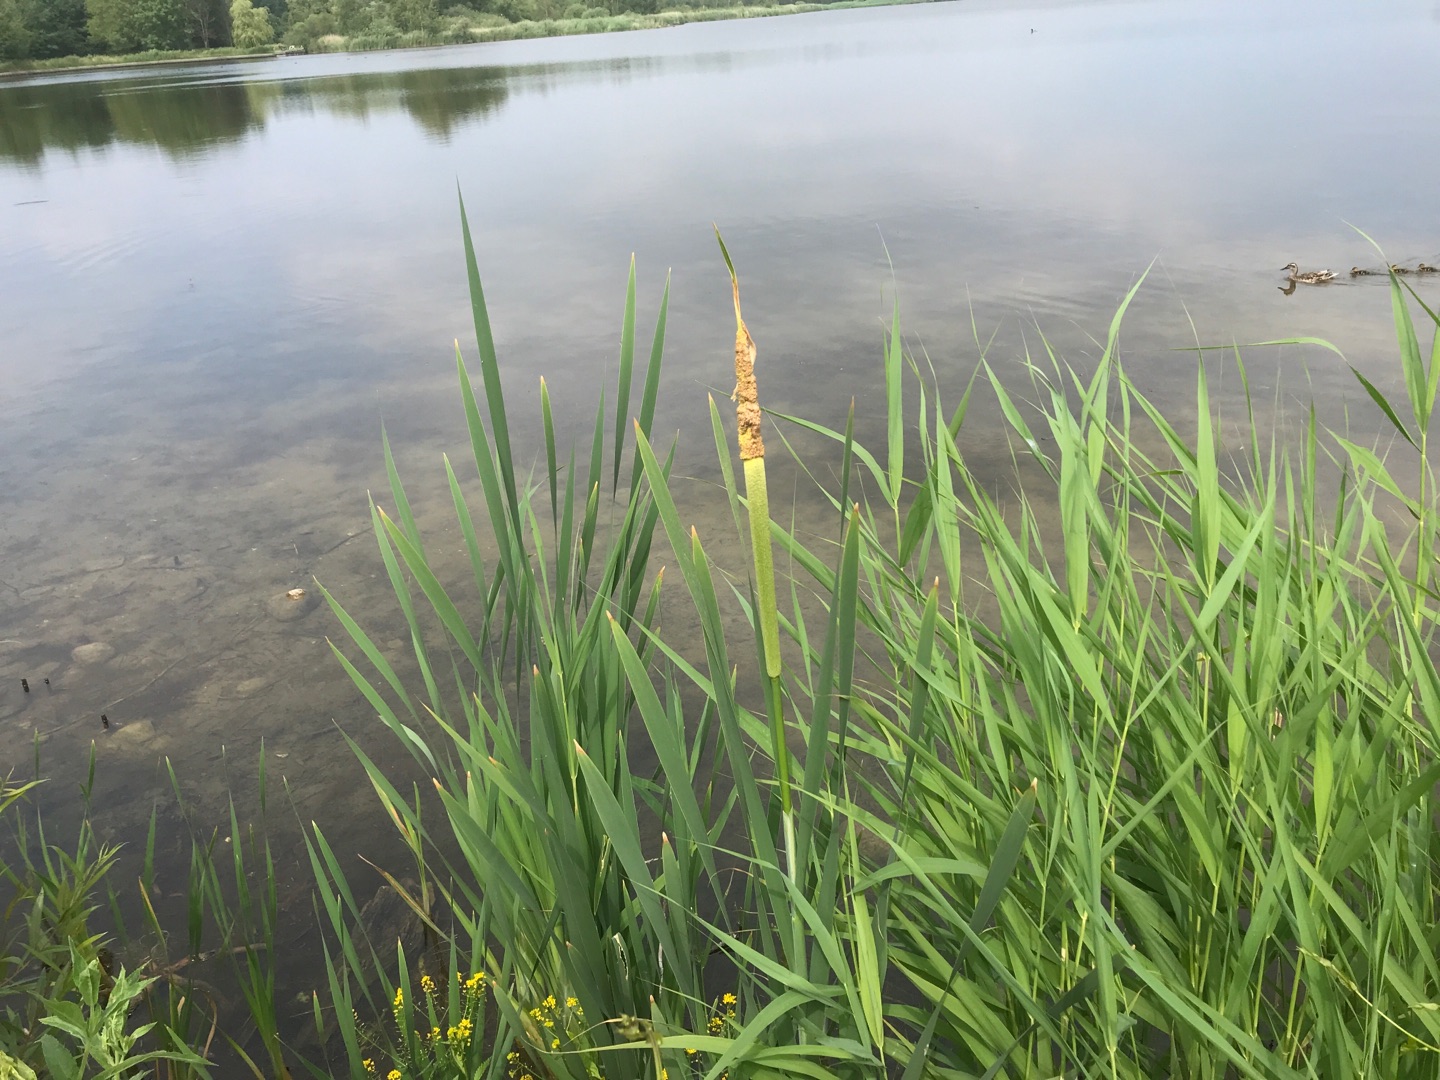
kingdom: Plantae
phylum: Tracheophyta
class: Liliopsida
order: Poales
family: Typhaceae
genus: Typha
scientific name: Typha latifolia
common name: Bredbladet dunhammer
